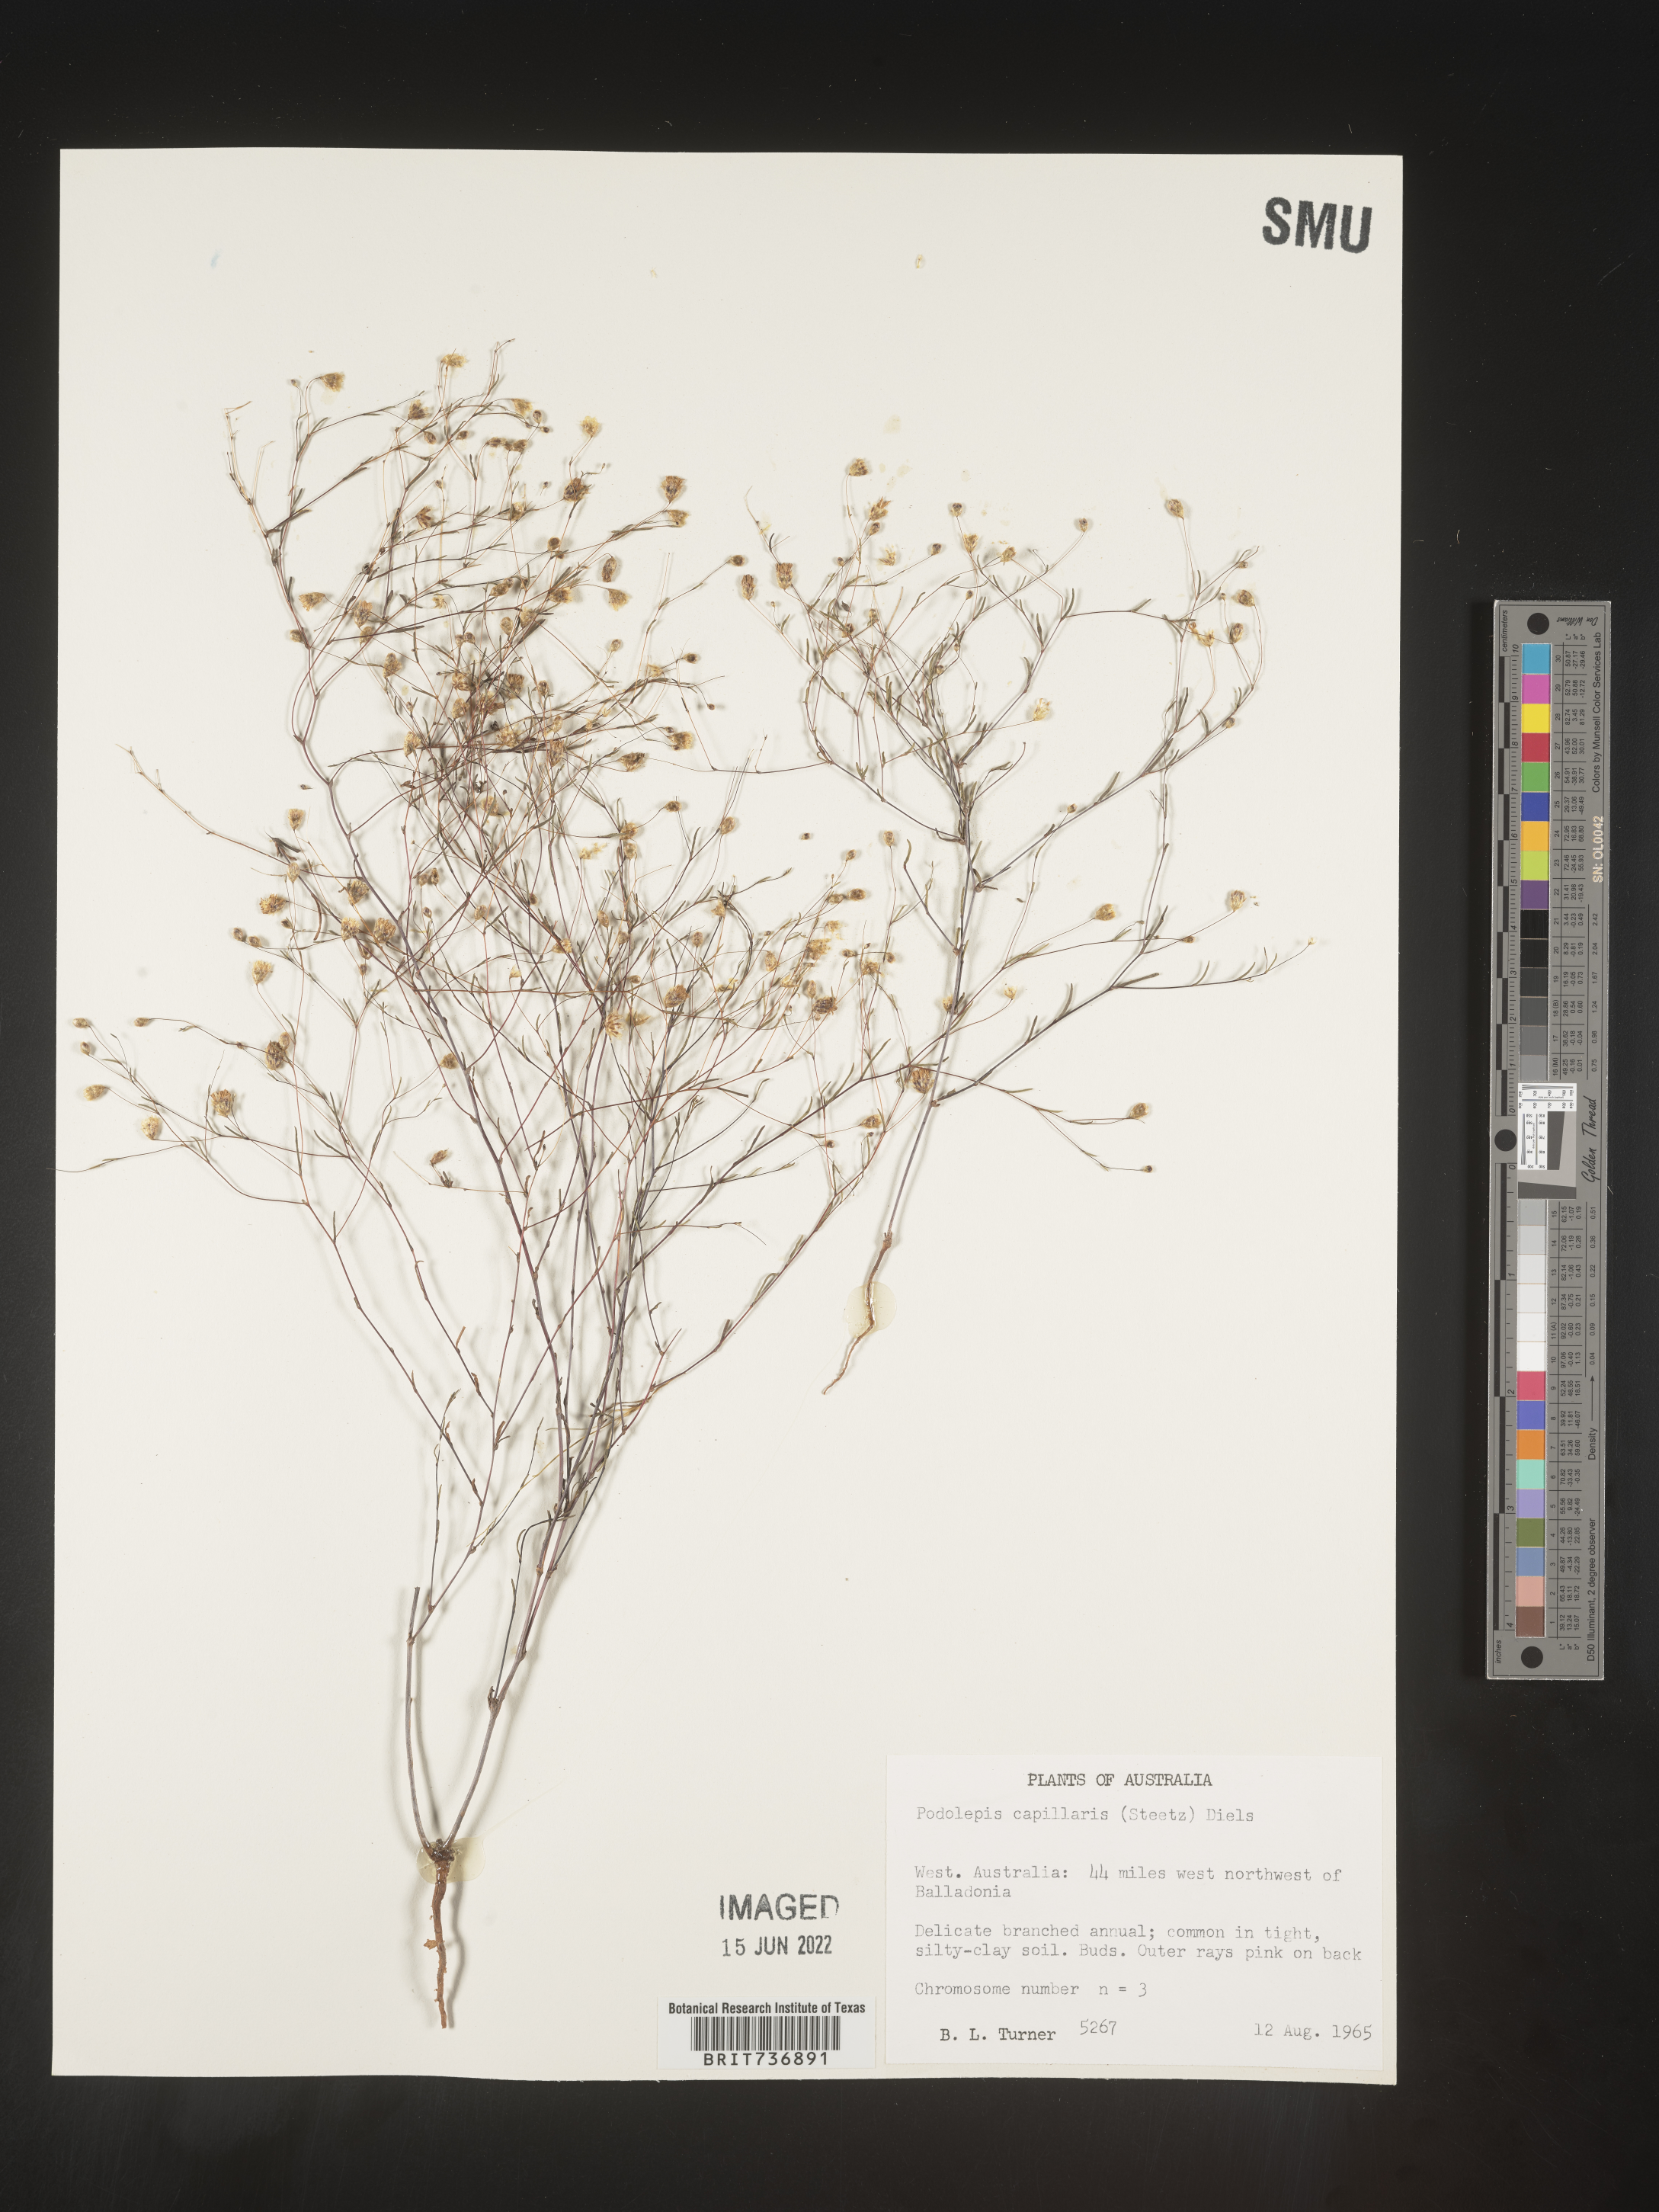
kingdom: Plantae
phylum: Tracheophyta
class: Magnoliopsida
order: Asterales
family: Asteraceae
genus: Podolepis
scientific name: Podolepis
